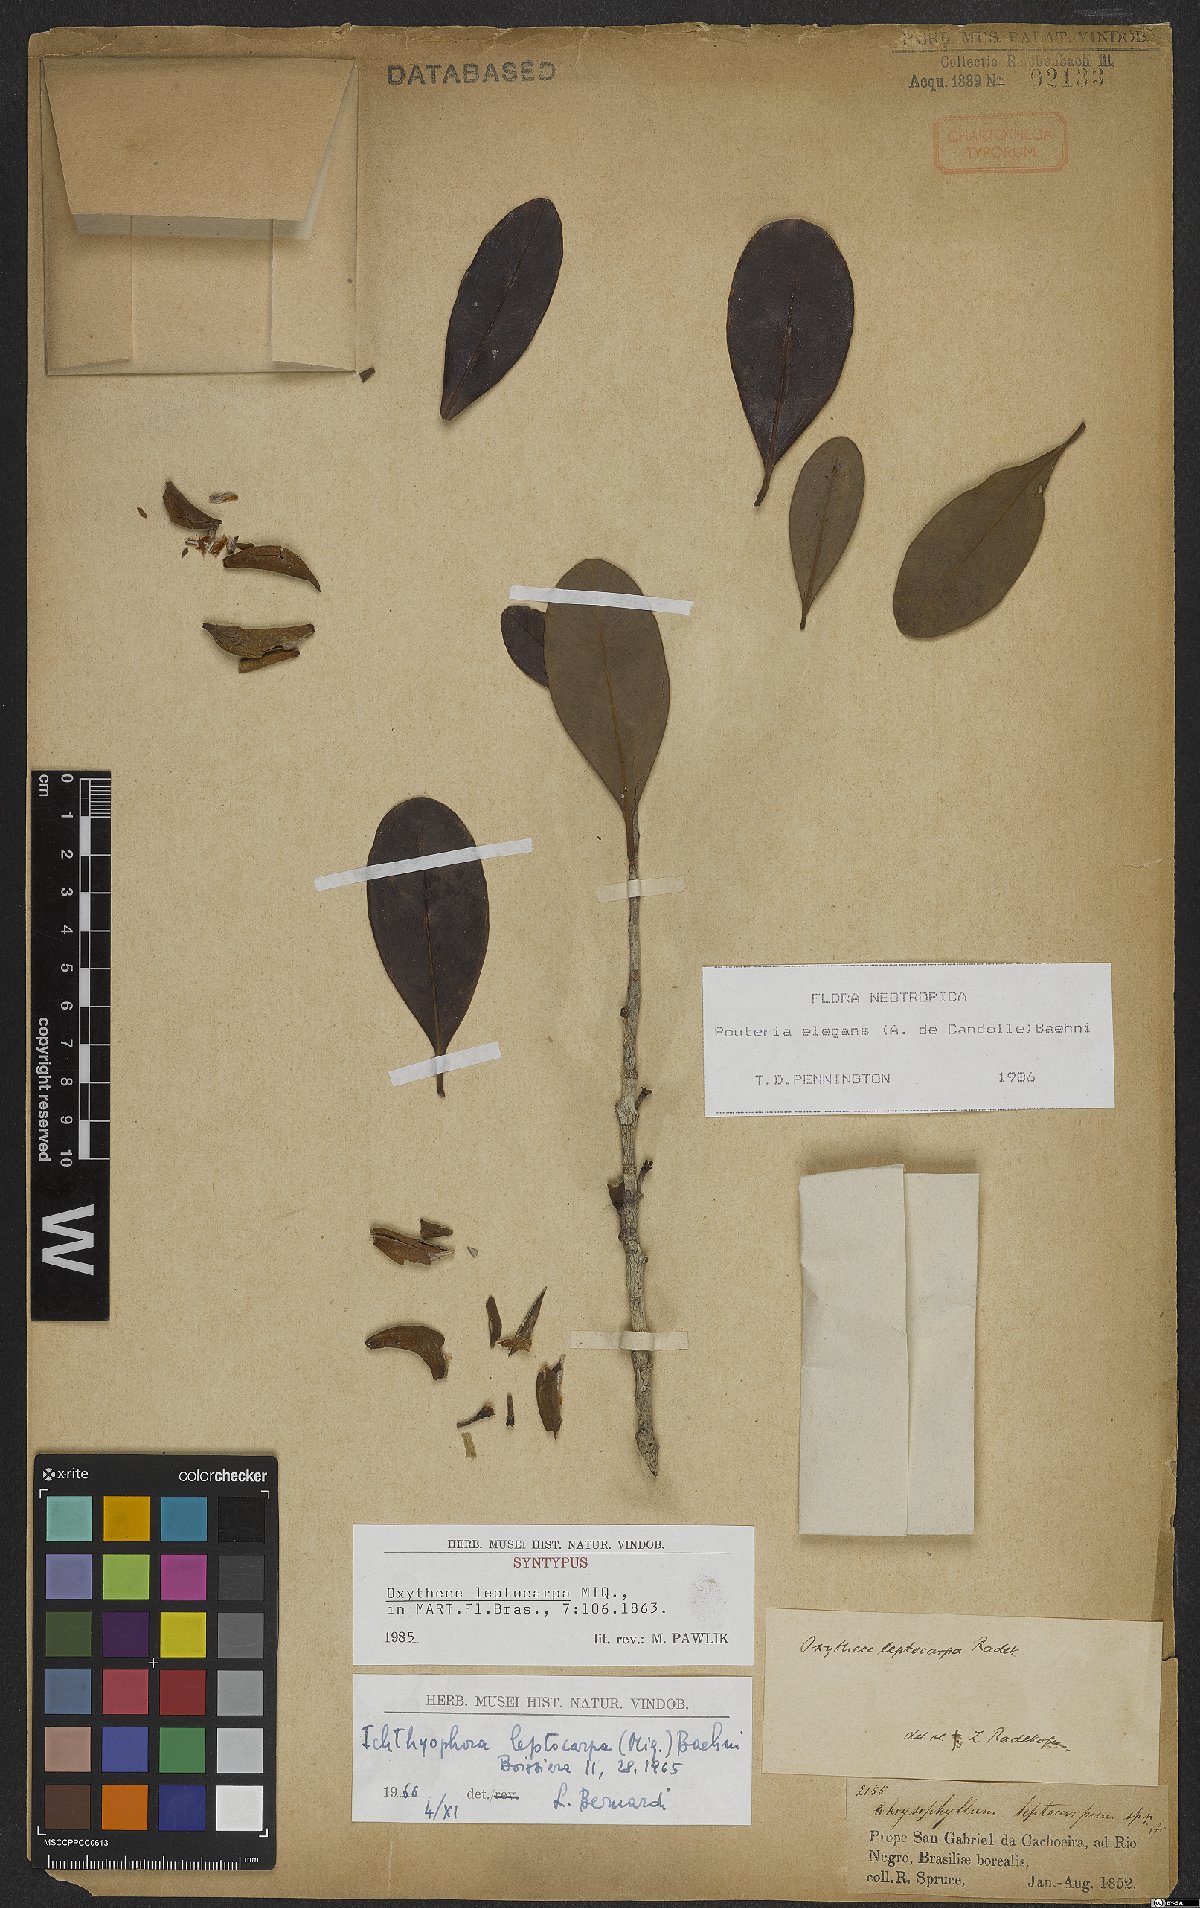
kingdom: Plantae
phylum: Tracheophyta
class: Magnoliopsida
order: Ericales
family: Sapotaceae
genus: Pouteria
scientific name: Pouteria elegans
